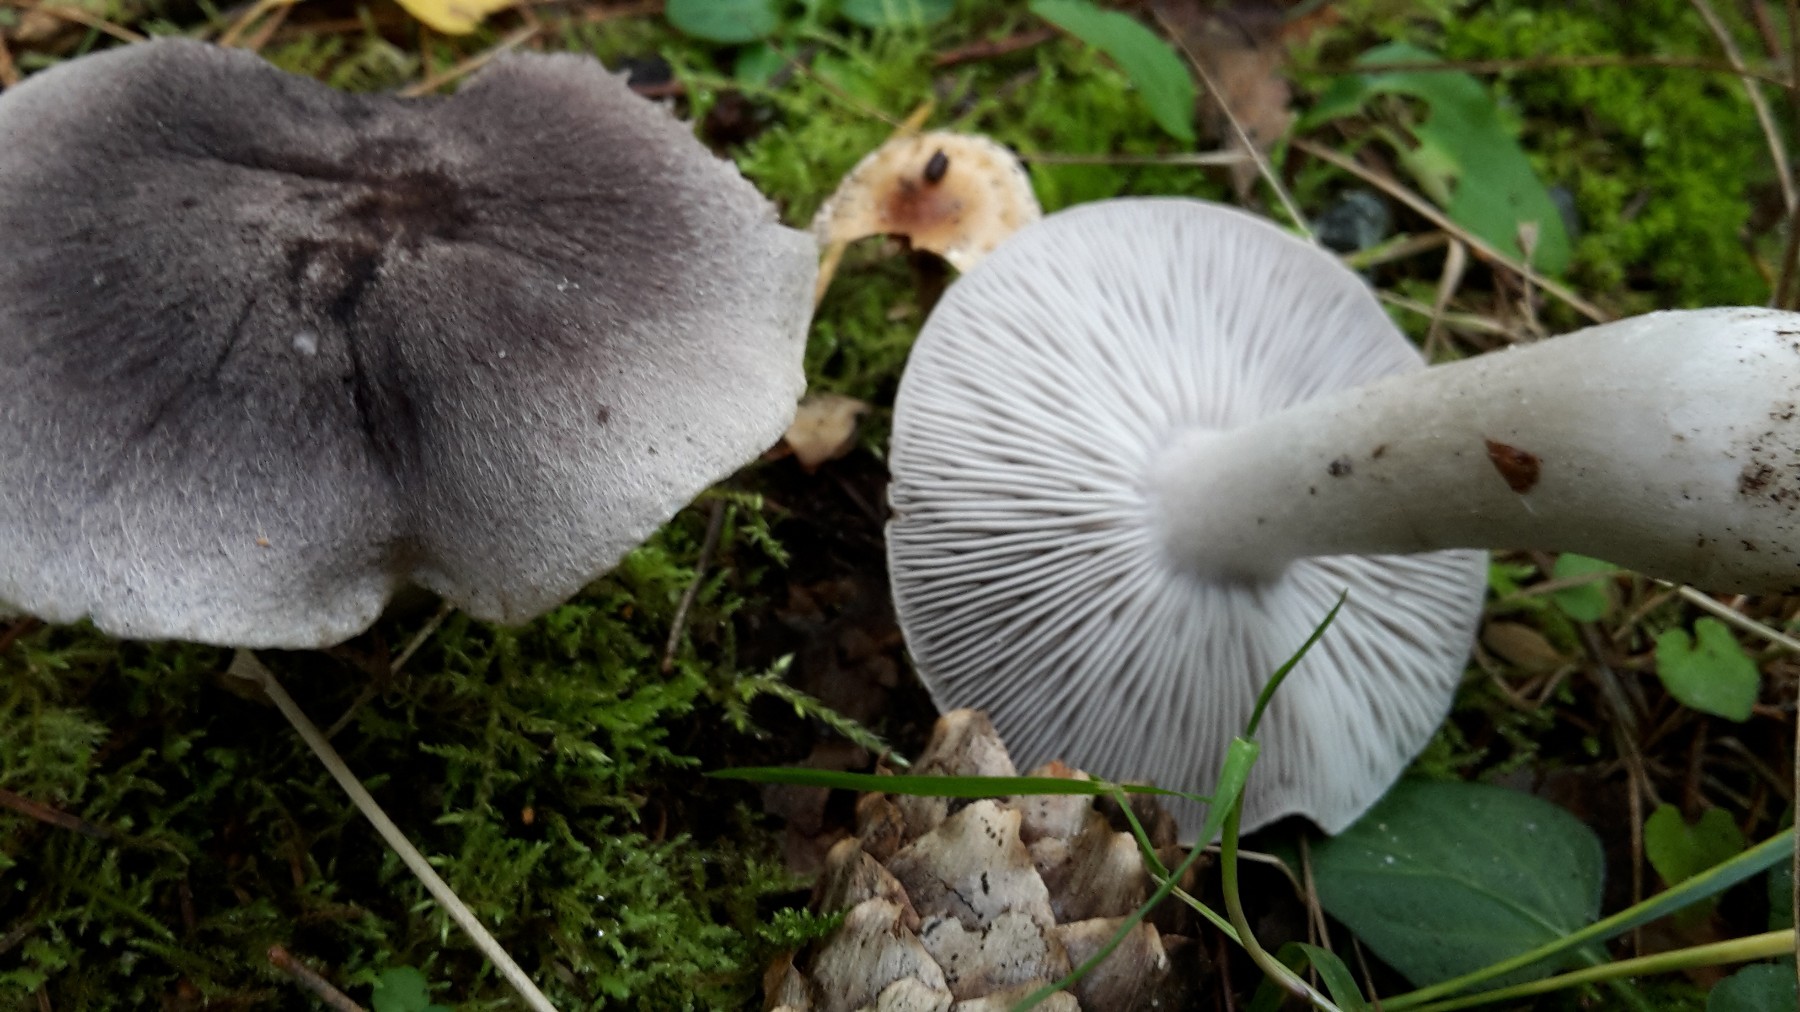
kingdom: Fungi
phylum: Basidiomycota
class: Agaricomycetes
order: Agaricales
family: Tricholomataceae
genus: Tricholoma
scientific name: Tricholoma terreum
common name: jordfarvet ridderhat
